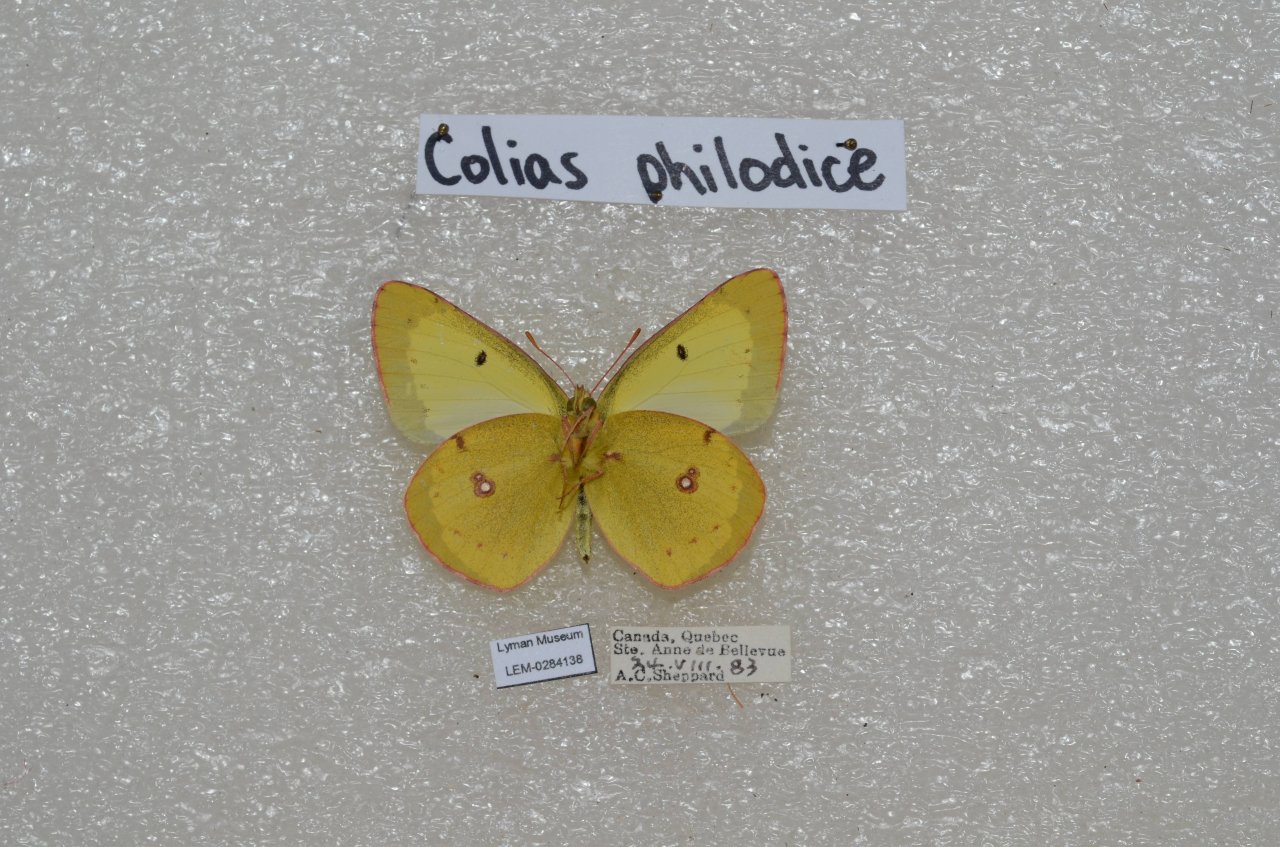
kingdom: Animalia
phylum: Arthropoda
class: Insecta
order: Lepidoptera
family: Pieridae
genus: Colias
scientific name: Colias philodice
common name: Clouded Sulphur
